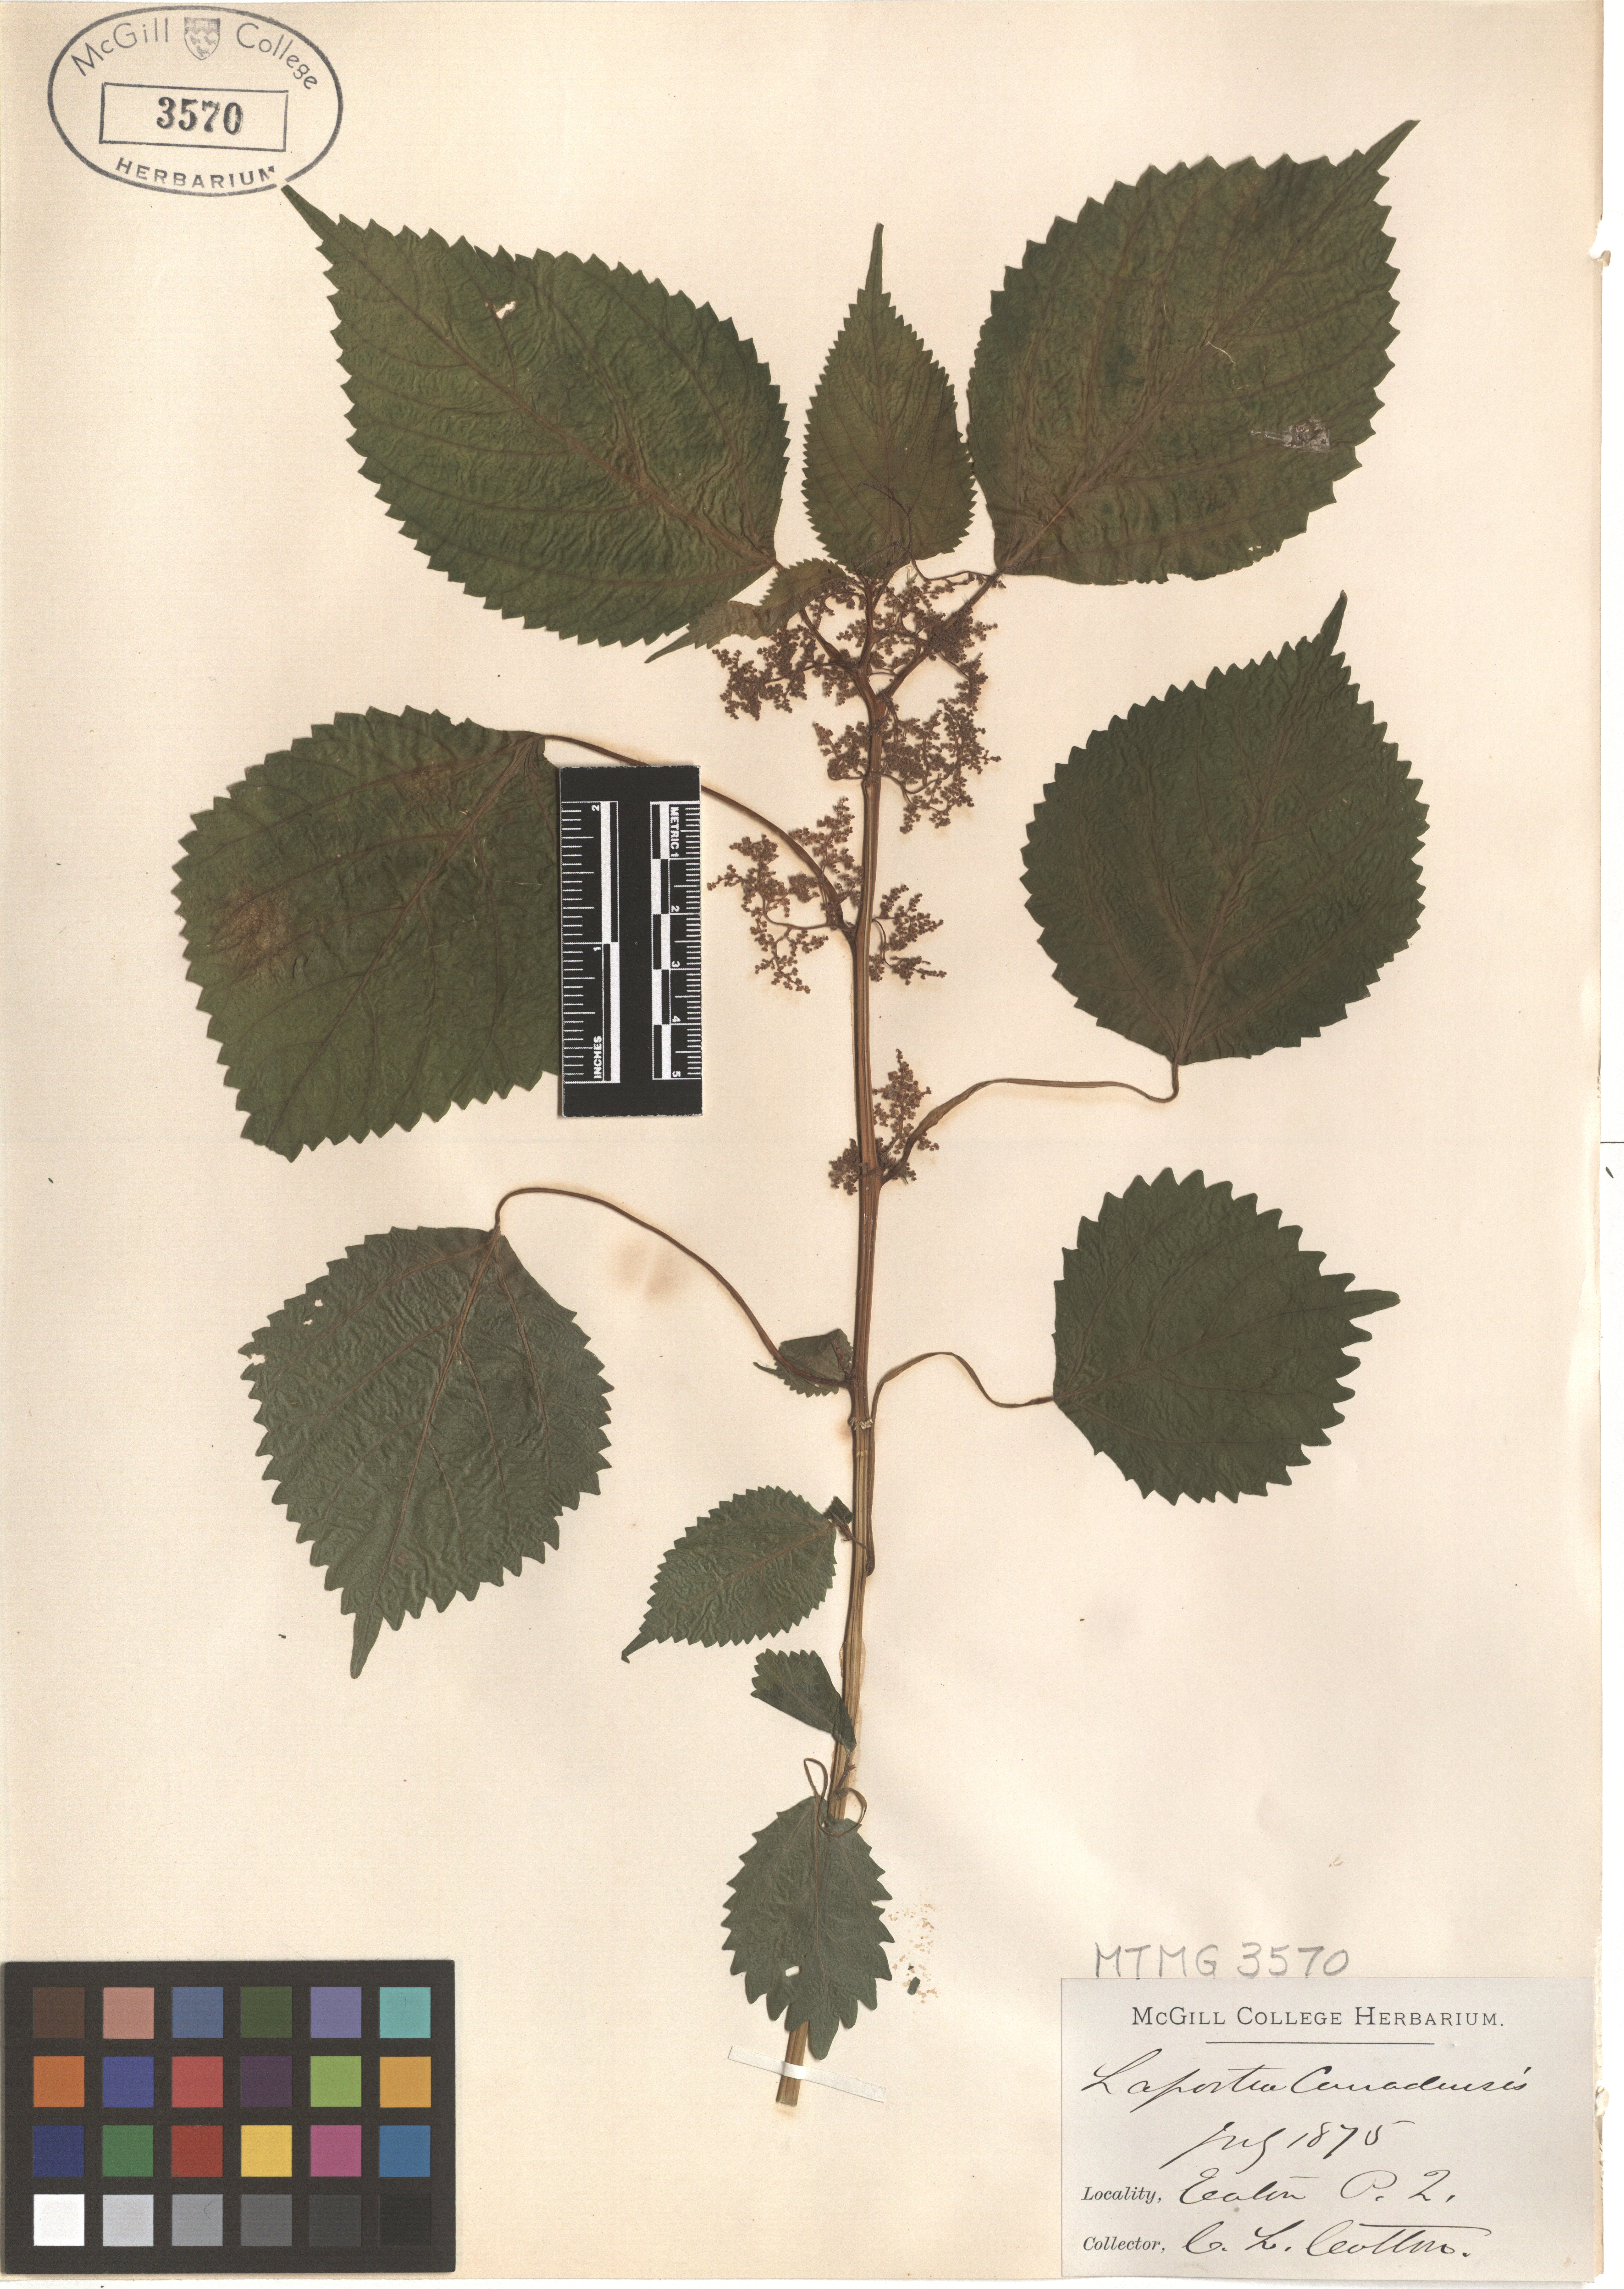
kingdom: Plantae
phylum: Tracheophyta
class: Magnoliopsida
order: Rosales
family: Urticaceae
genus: Laportea
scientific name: Laportea canadensis
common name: Canada nettle
